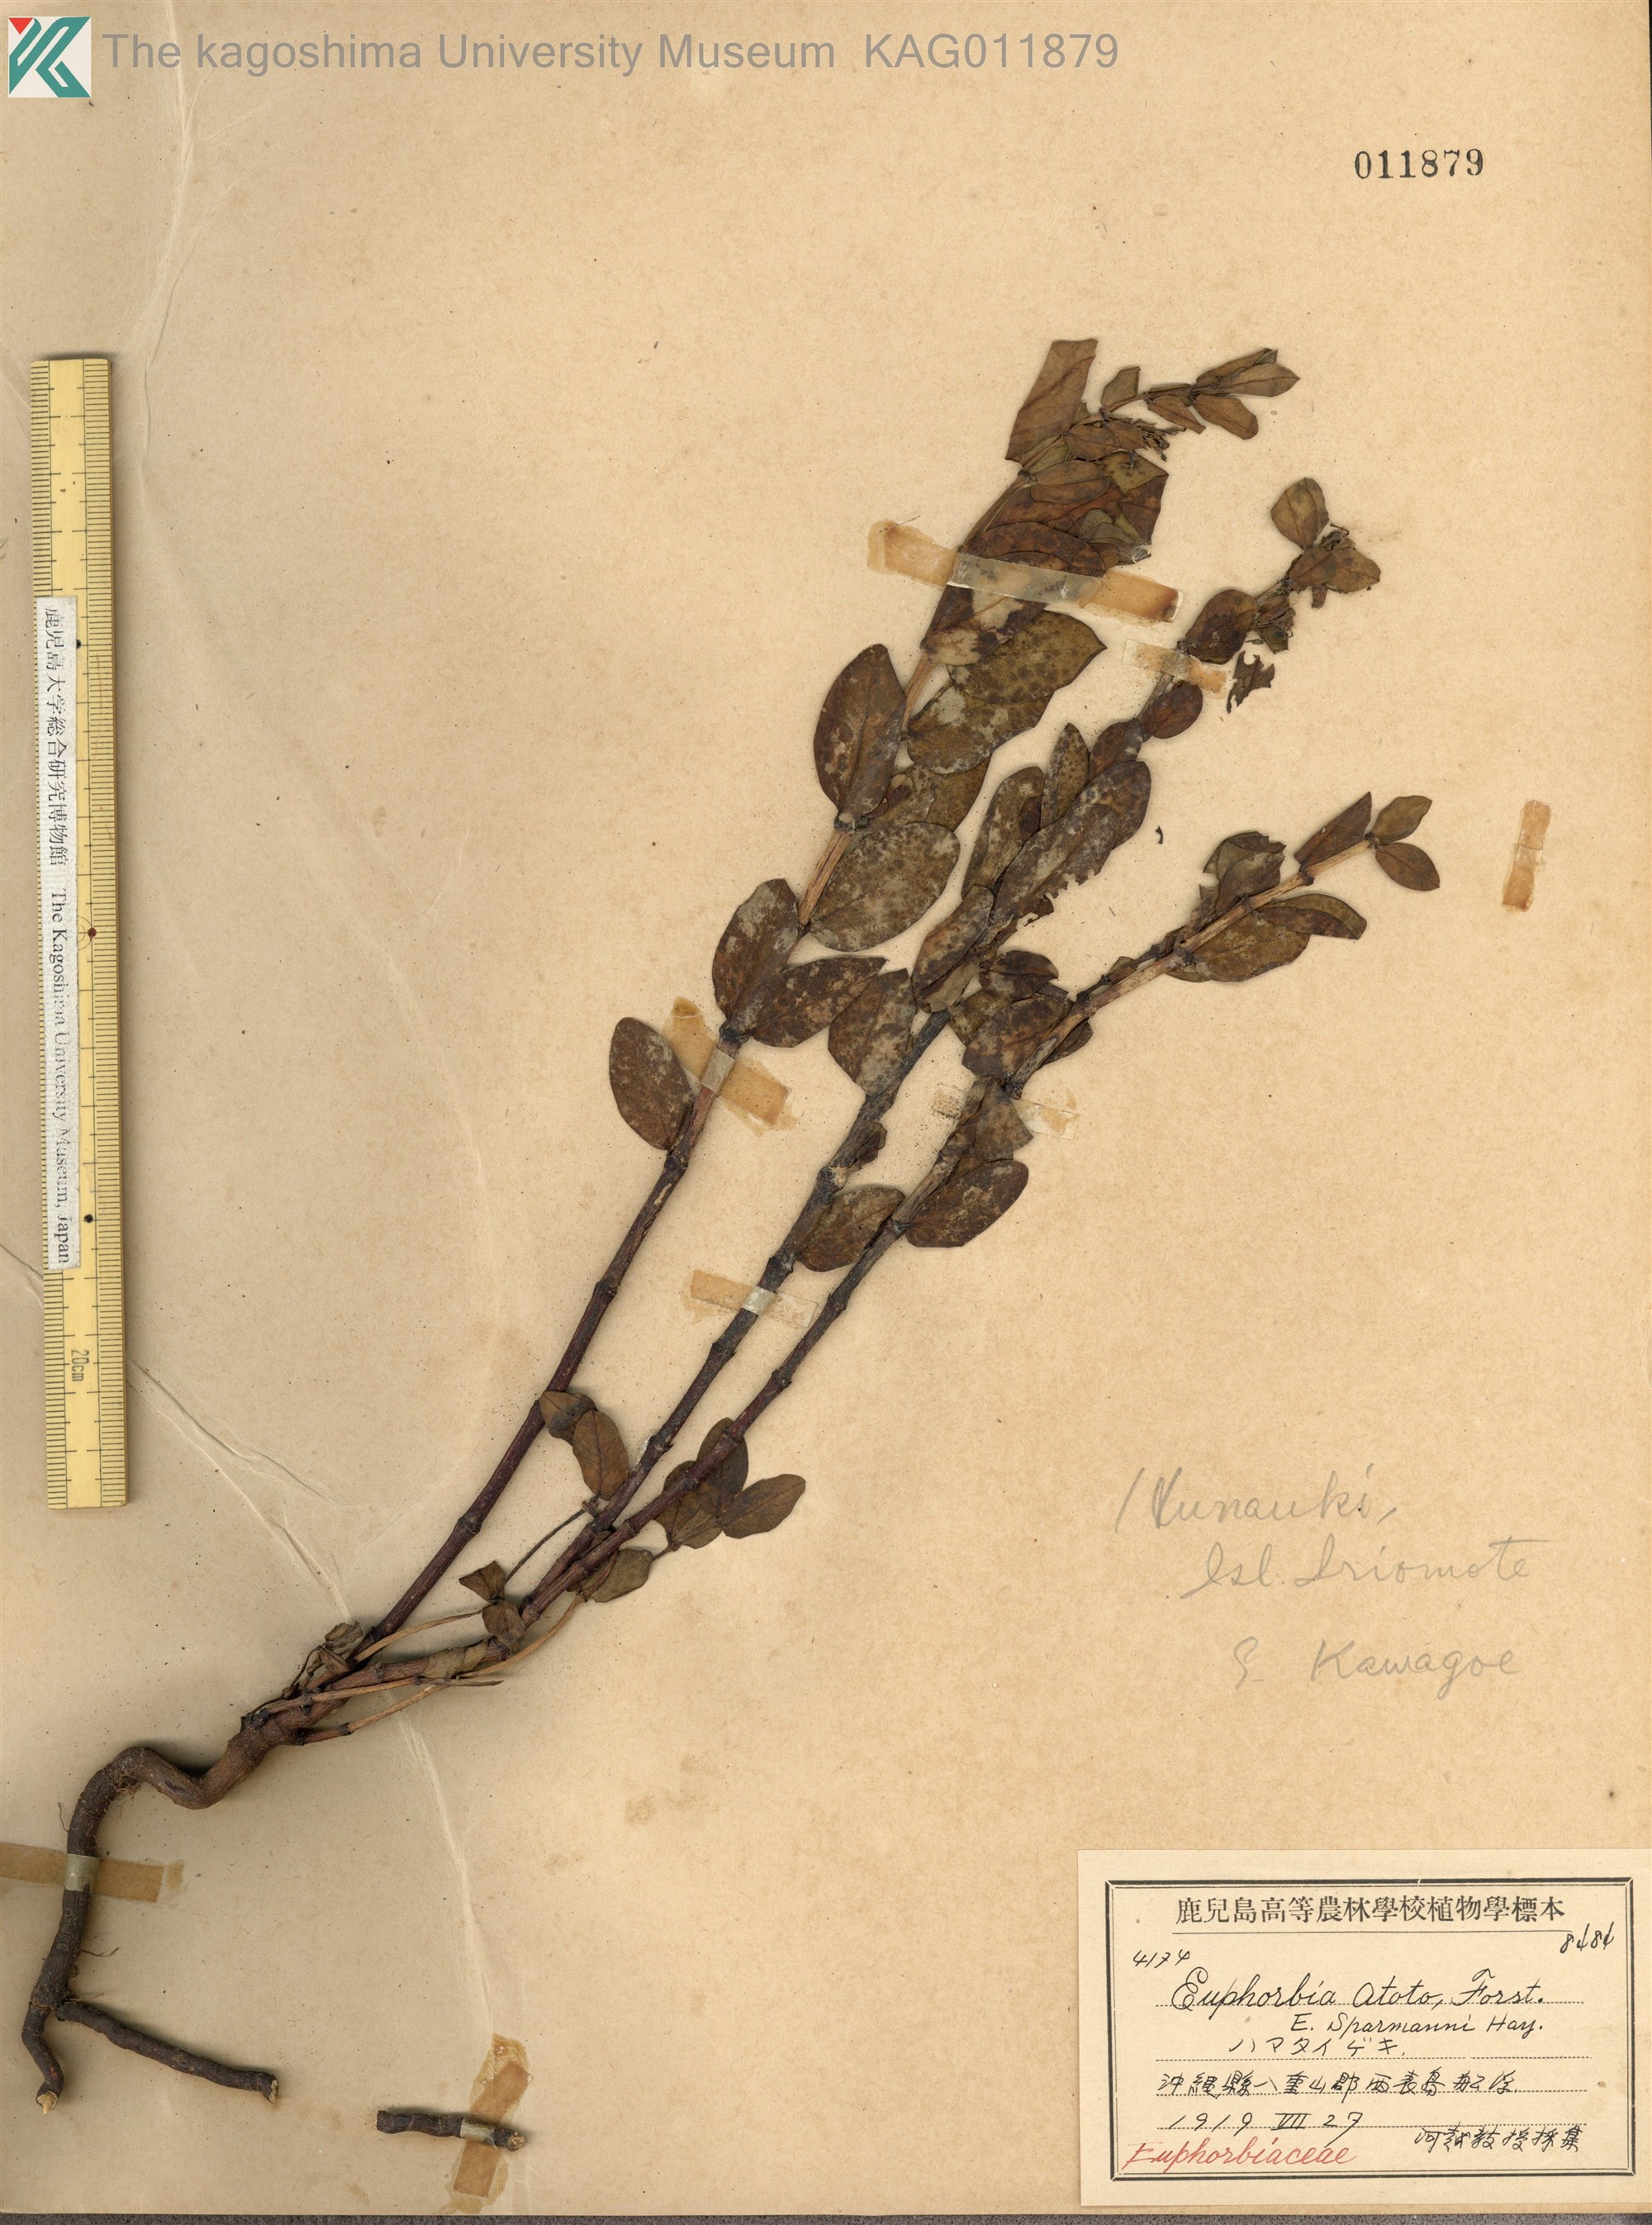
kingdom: Plantae
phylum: Tracheophyta
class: Magnoliopsida
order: Malpighiales
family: Euphorbiaceae
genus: Euphorbia
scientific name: Euphorbia chamissonis
